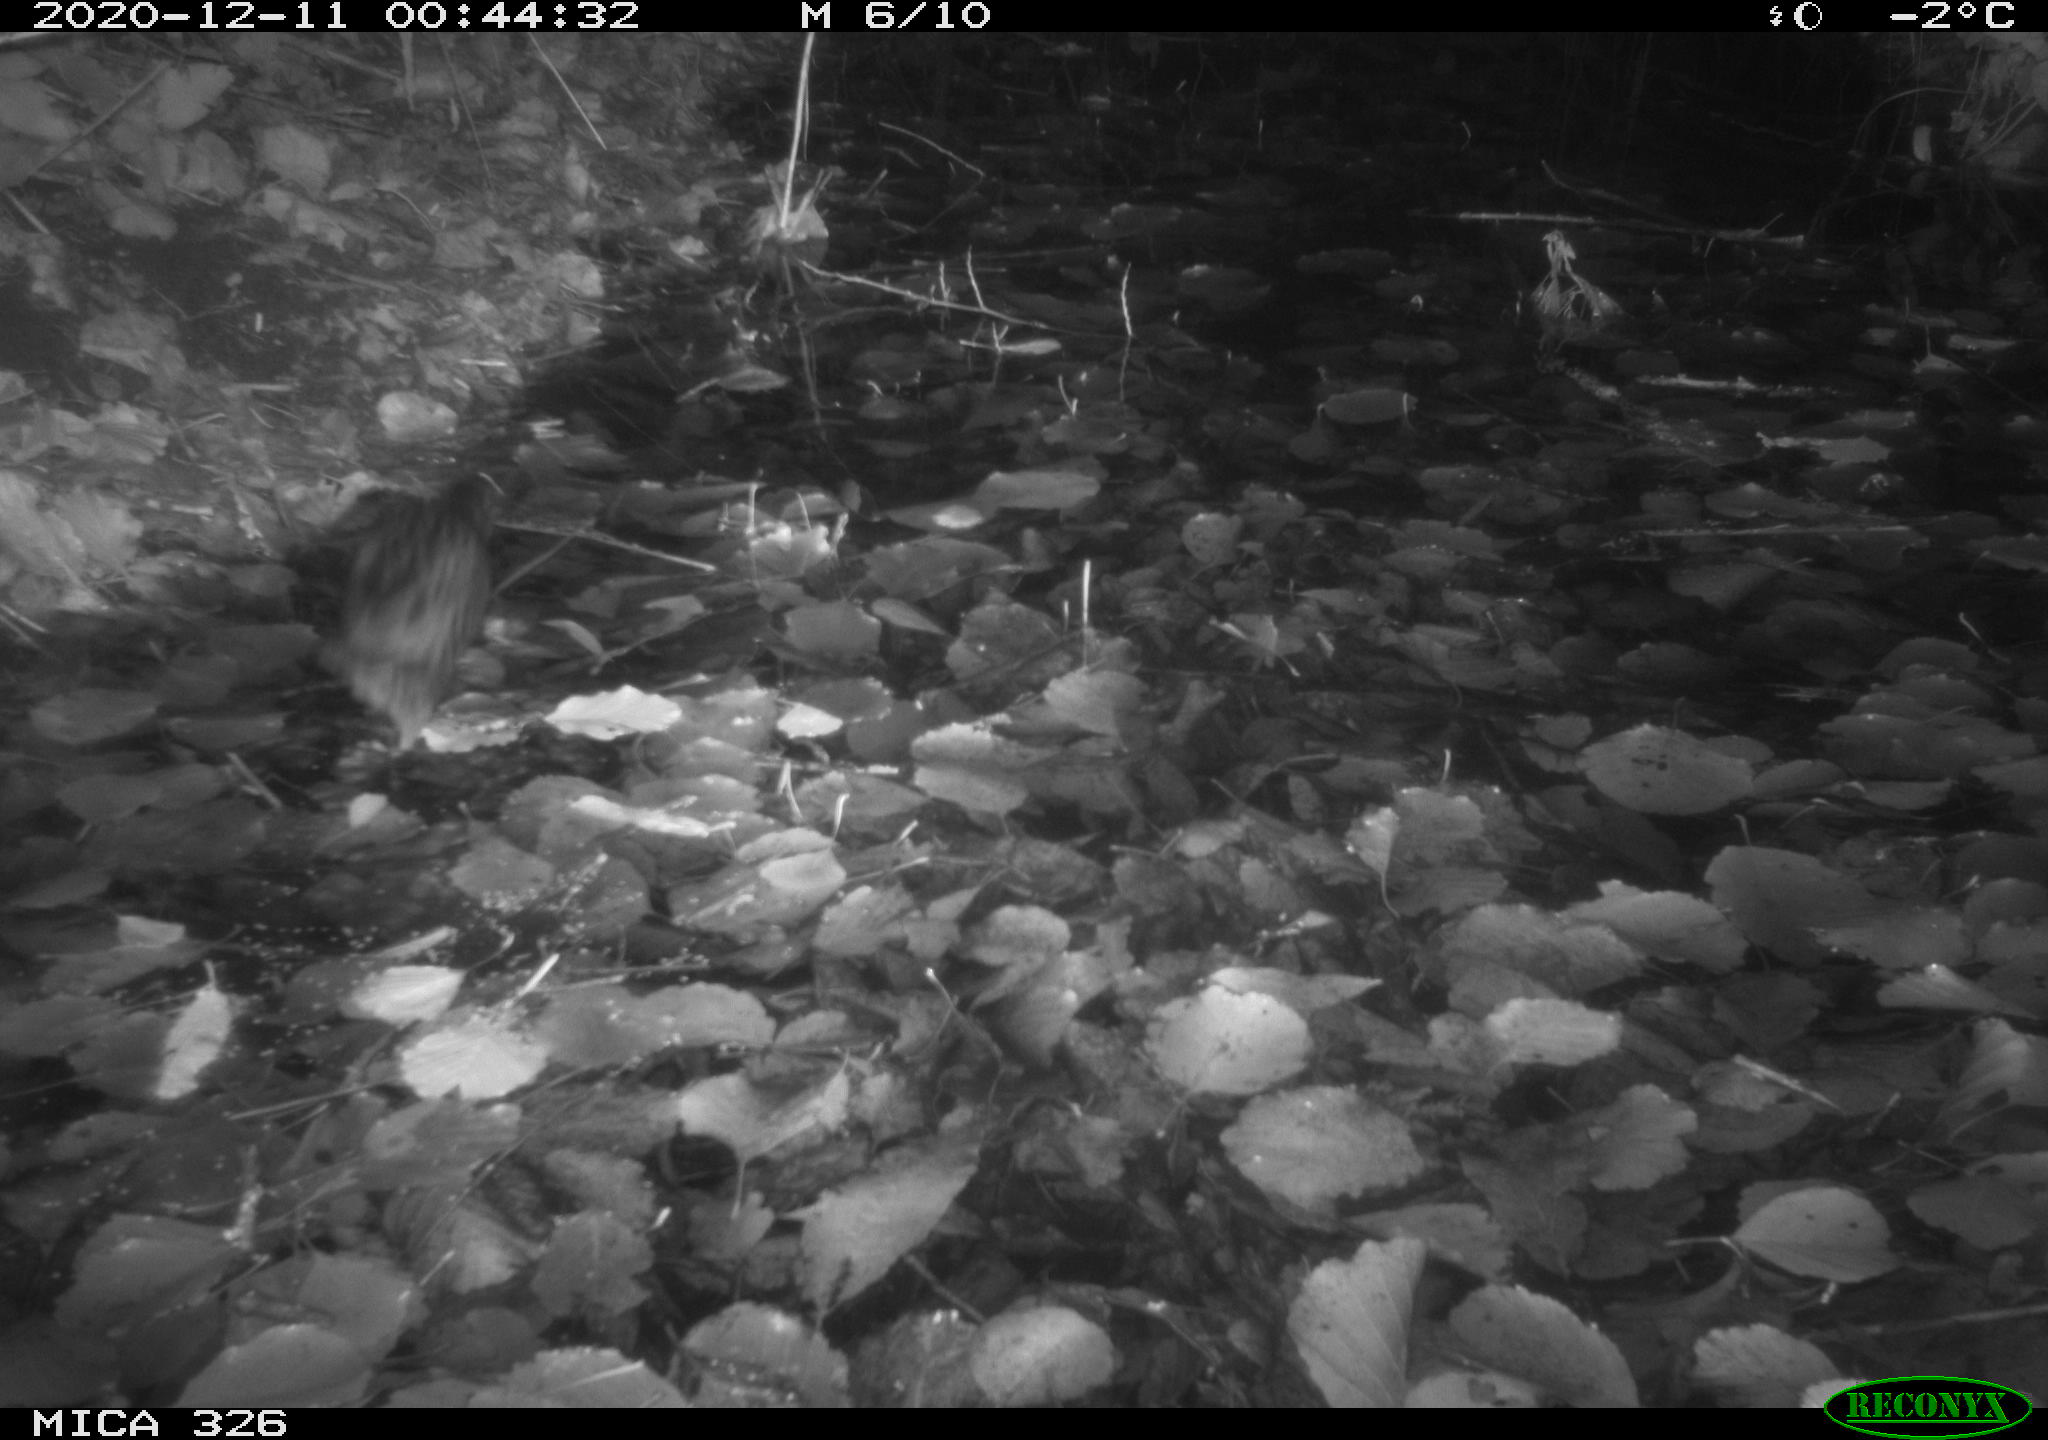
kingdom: Animalia
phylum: Chordata
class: Aves
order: Gruiformes
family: Rallidae
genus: Rallus
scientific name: Rallus aquaticus
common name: Water rail
